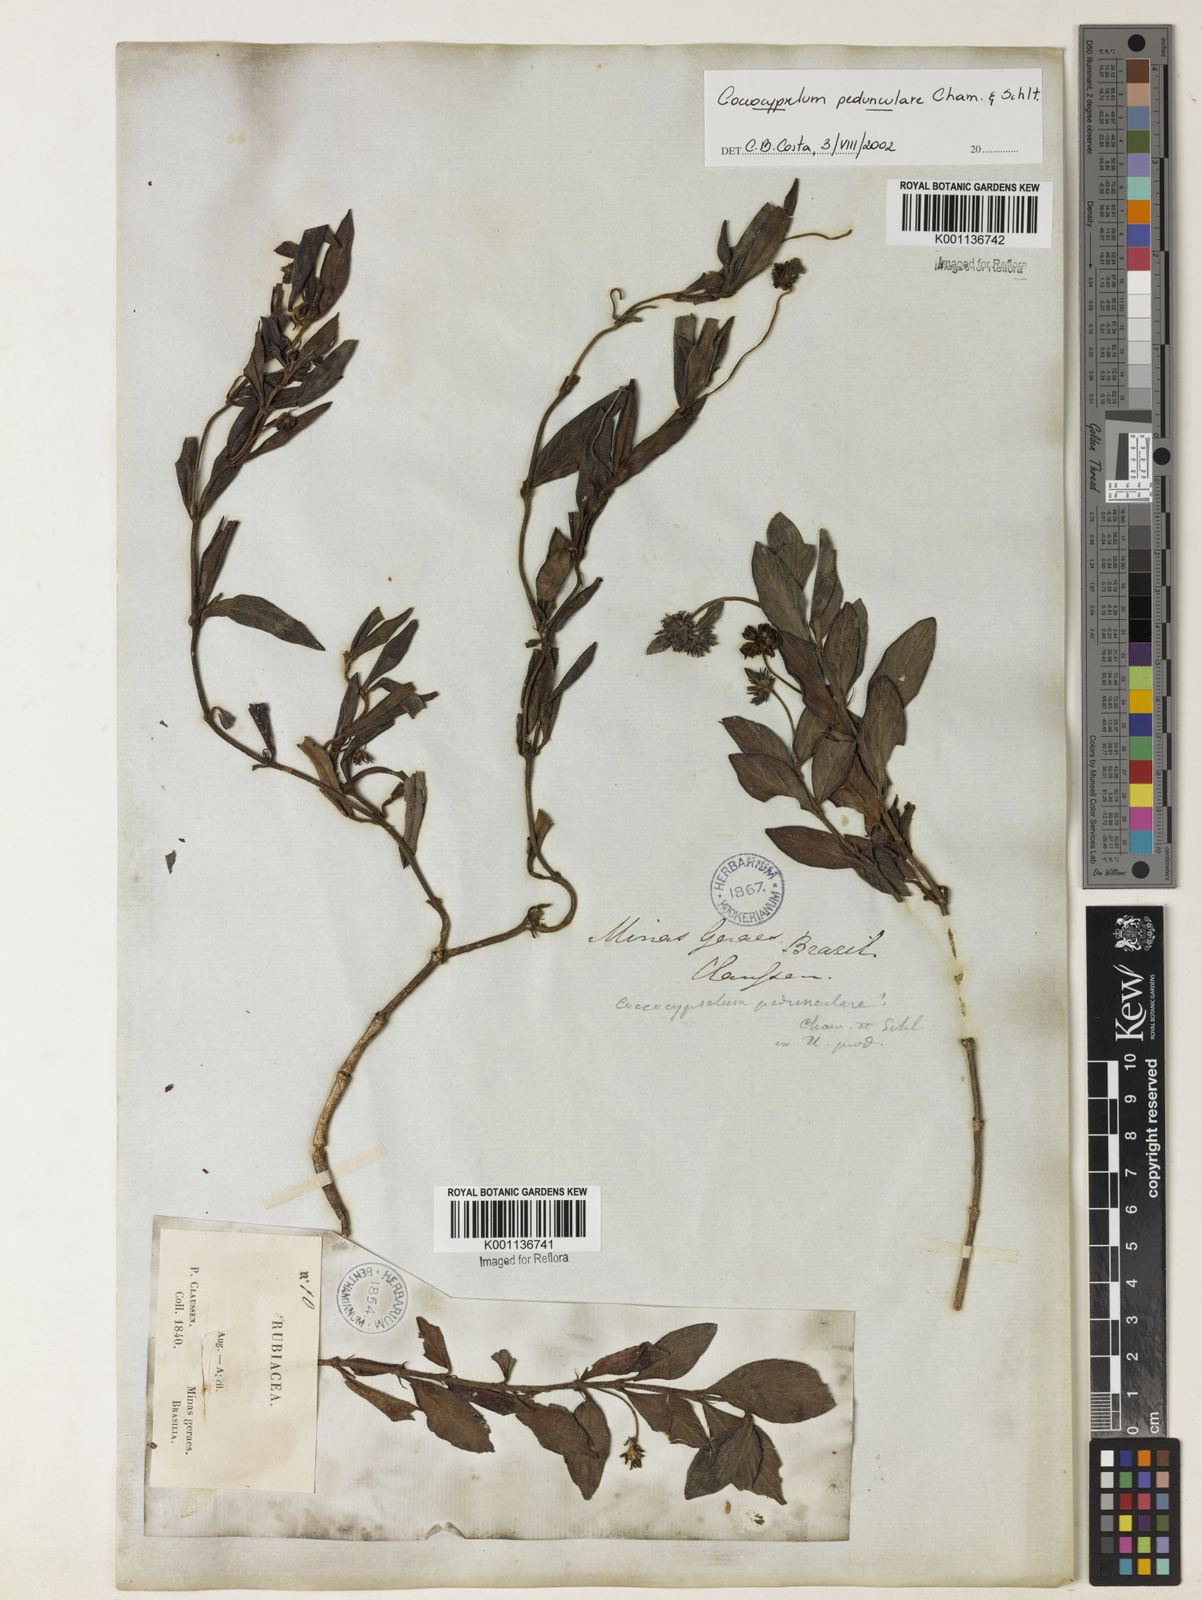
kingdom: Plantae
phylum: Tracheophyta
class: Magnoliopsida
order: Gentianales
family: Rubiaceae
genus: Coccocypselum
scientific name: Coccocypselum pedunculare
